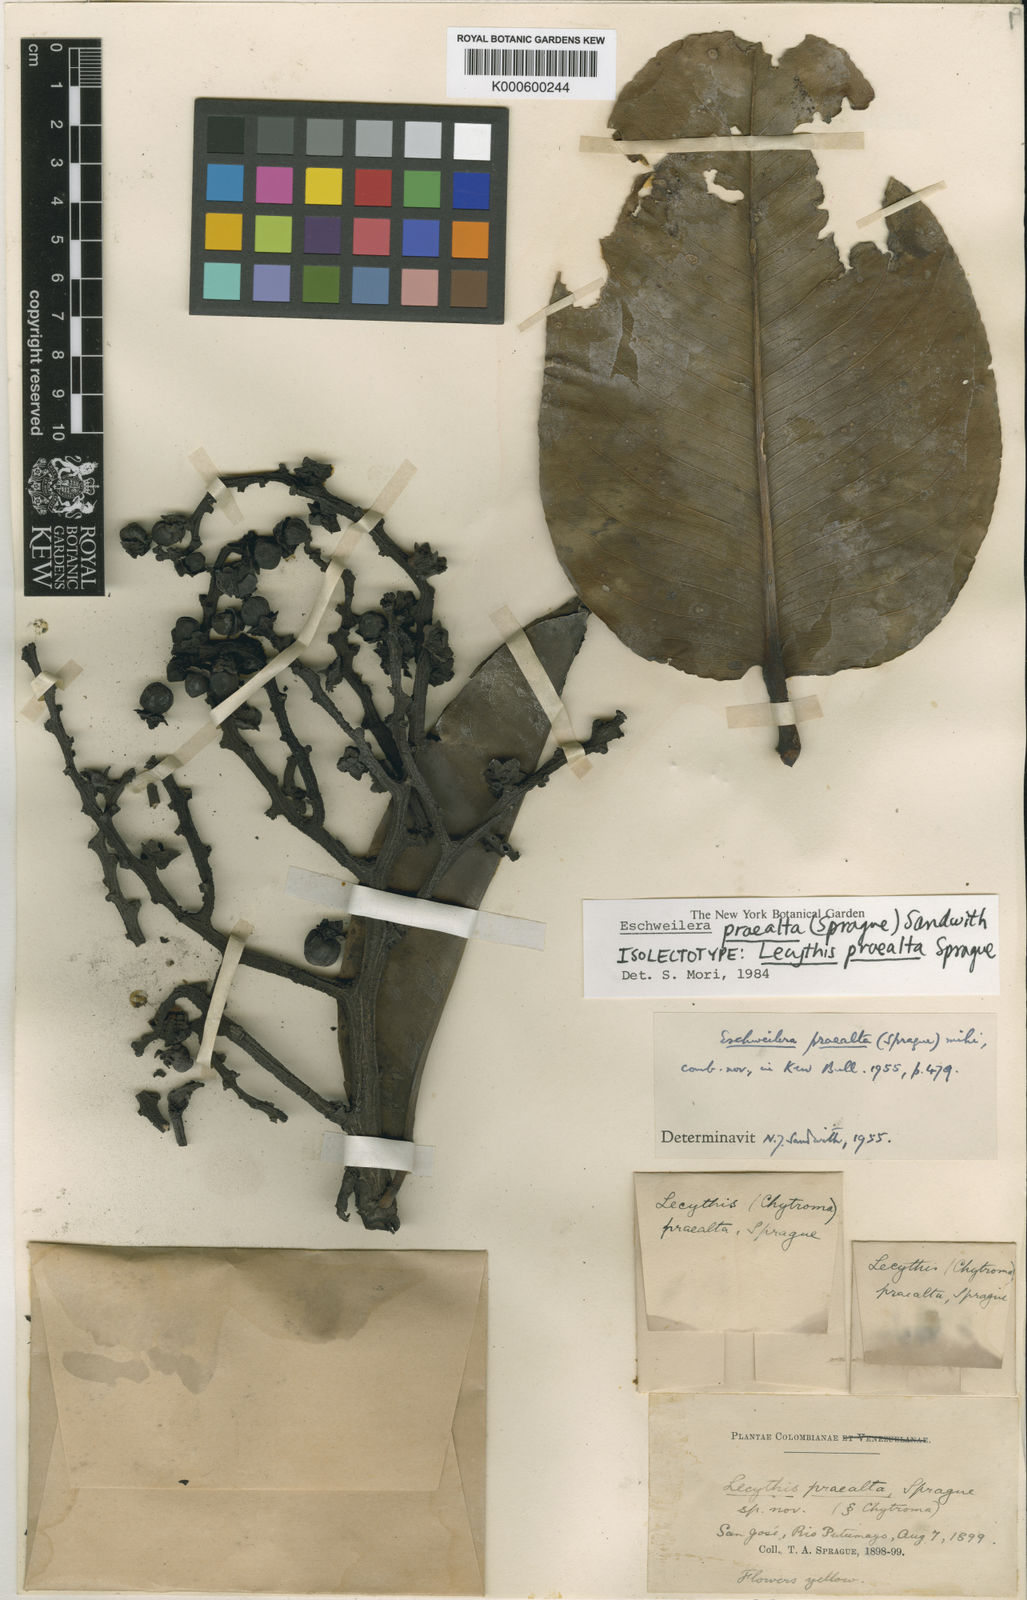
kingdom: Plantae
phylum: Tracheophyta
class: Magnoliopsida
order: Ericales
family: Lecythidaceae
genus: Eschweilera
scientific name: Eschweilera praealta
